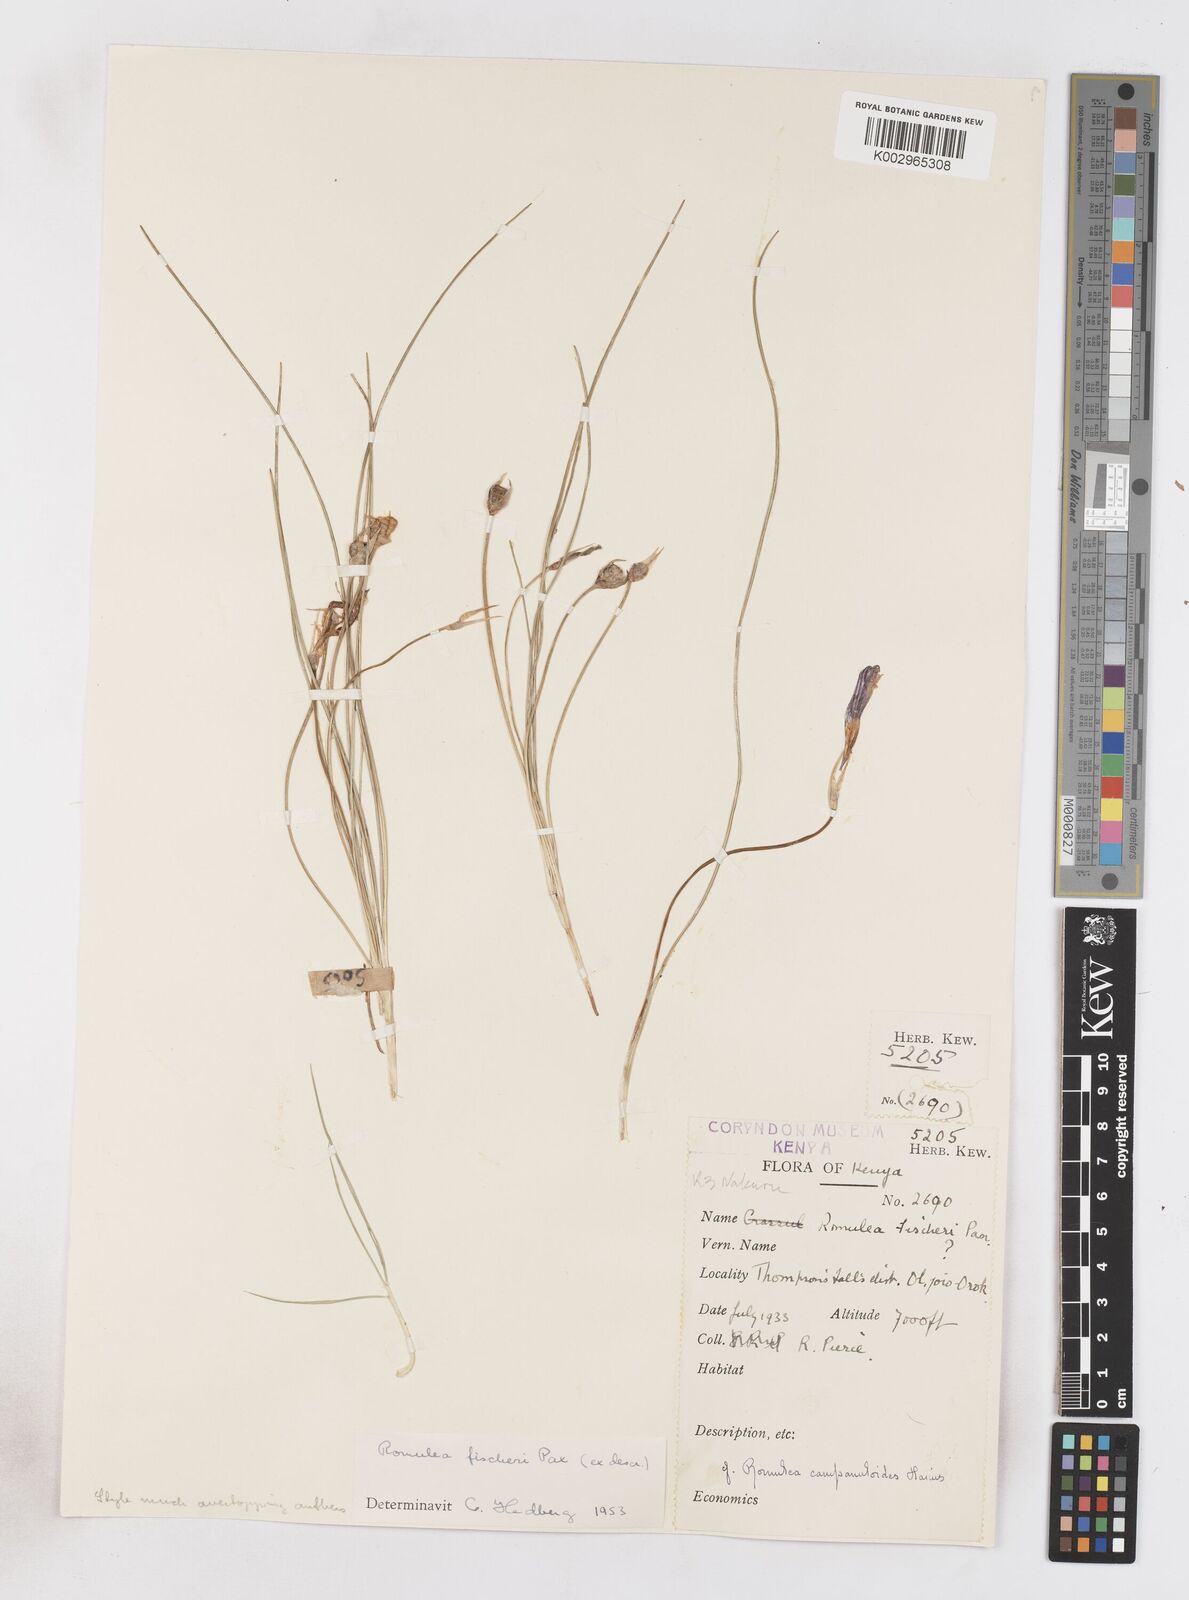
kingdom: Plantae
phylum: Tracheophyta
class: Liliopsida
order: Asparagales
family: Iridaceae
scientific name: Iridaceae
